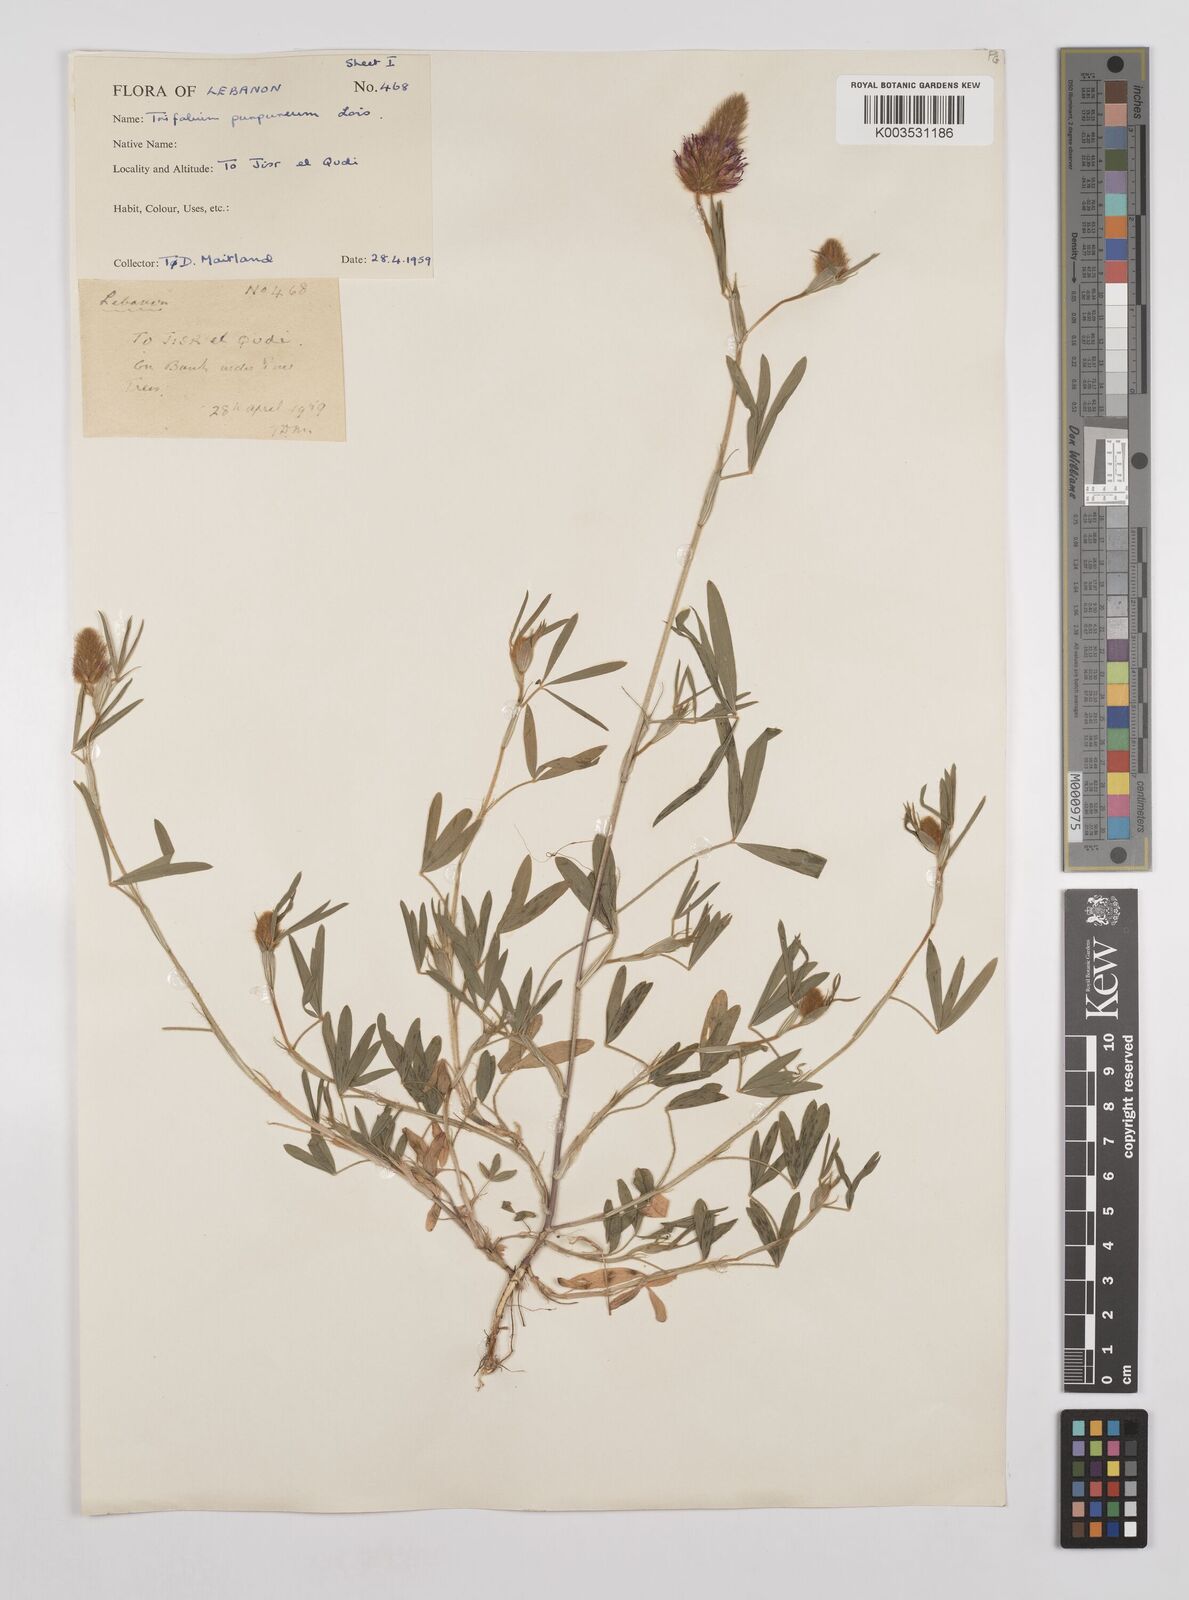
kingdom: Plantae
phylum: Tracheophyta
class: Magnoliopsida
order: Fabales
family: Fabaceae
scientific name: Fabaceae
